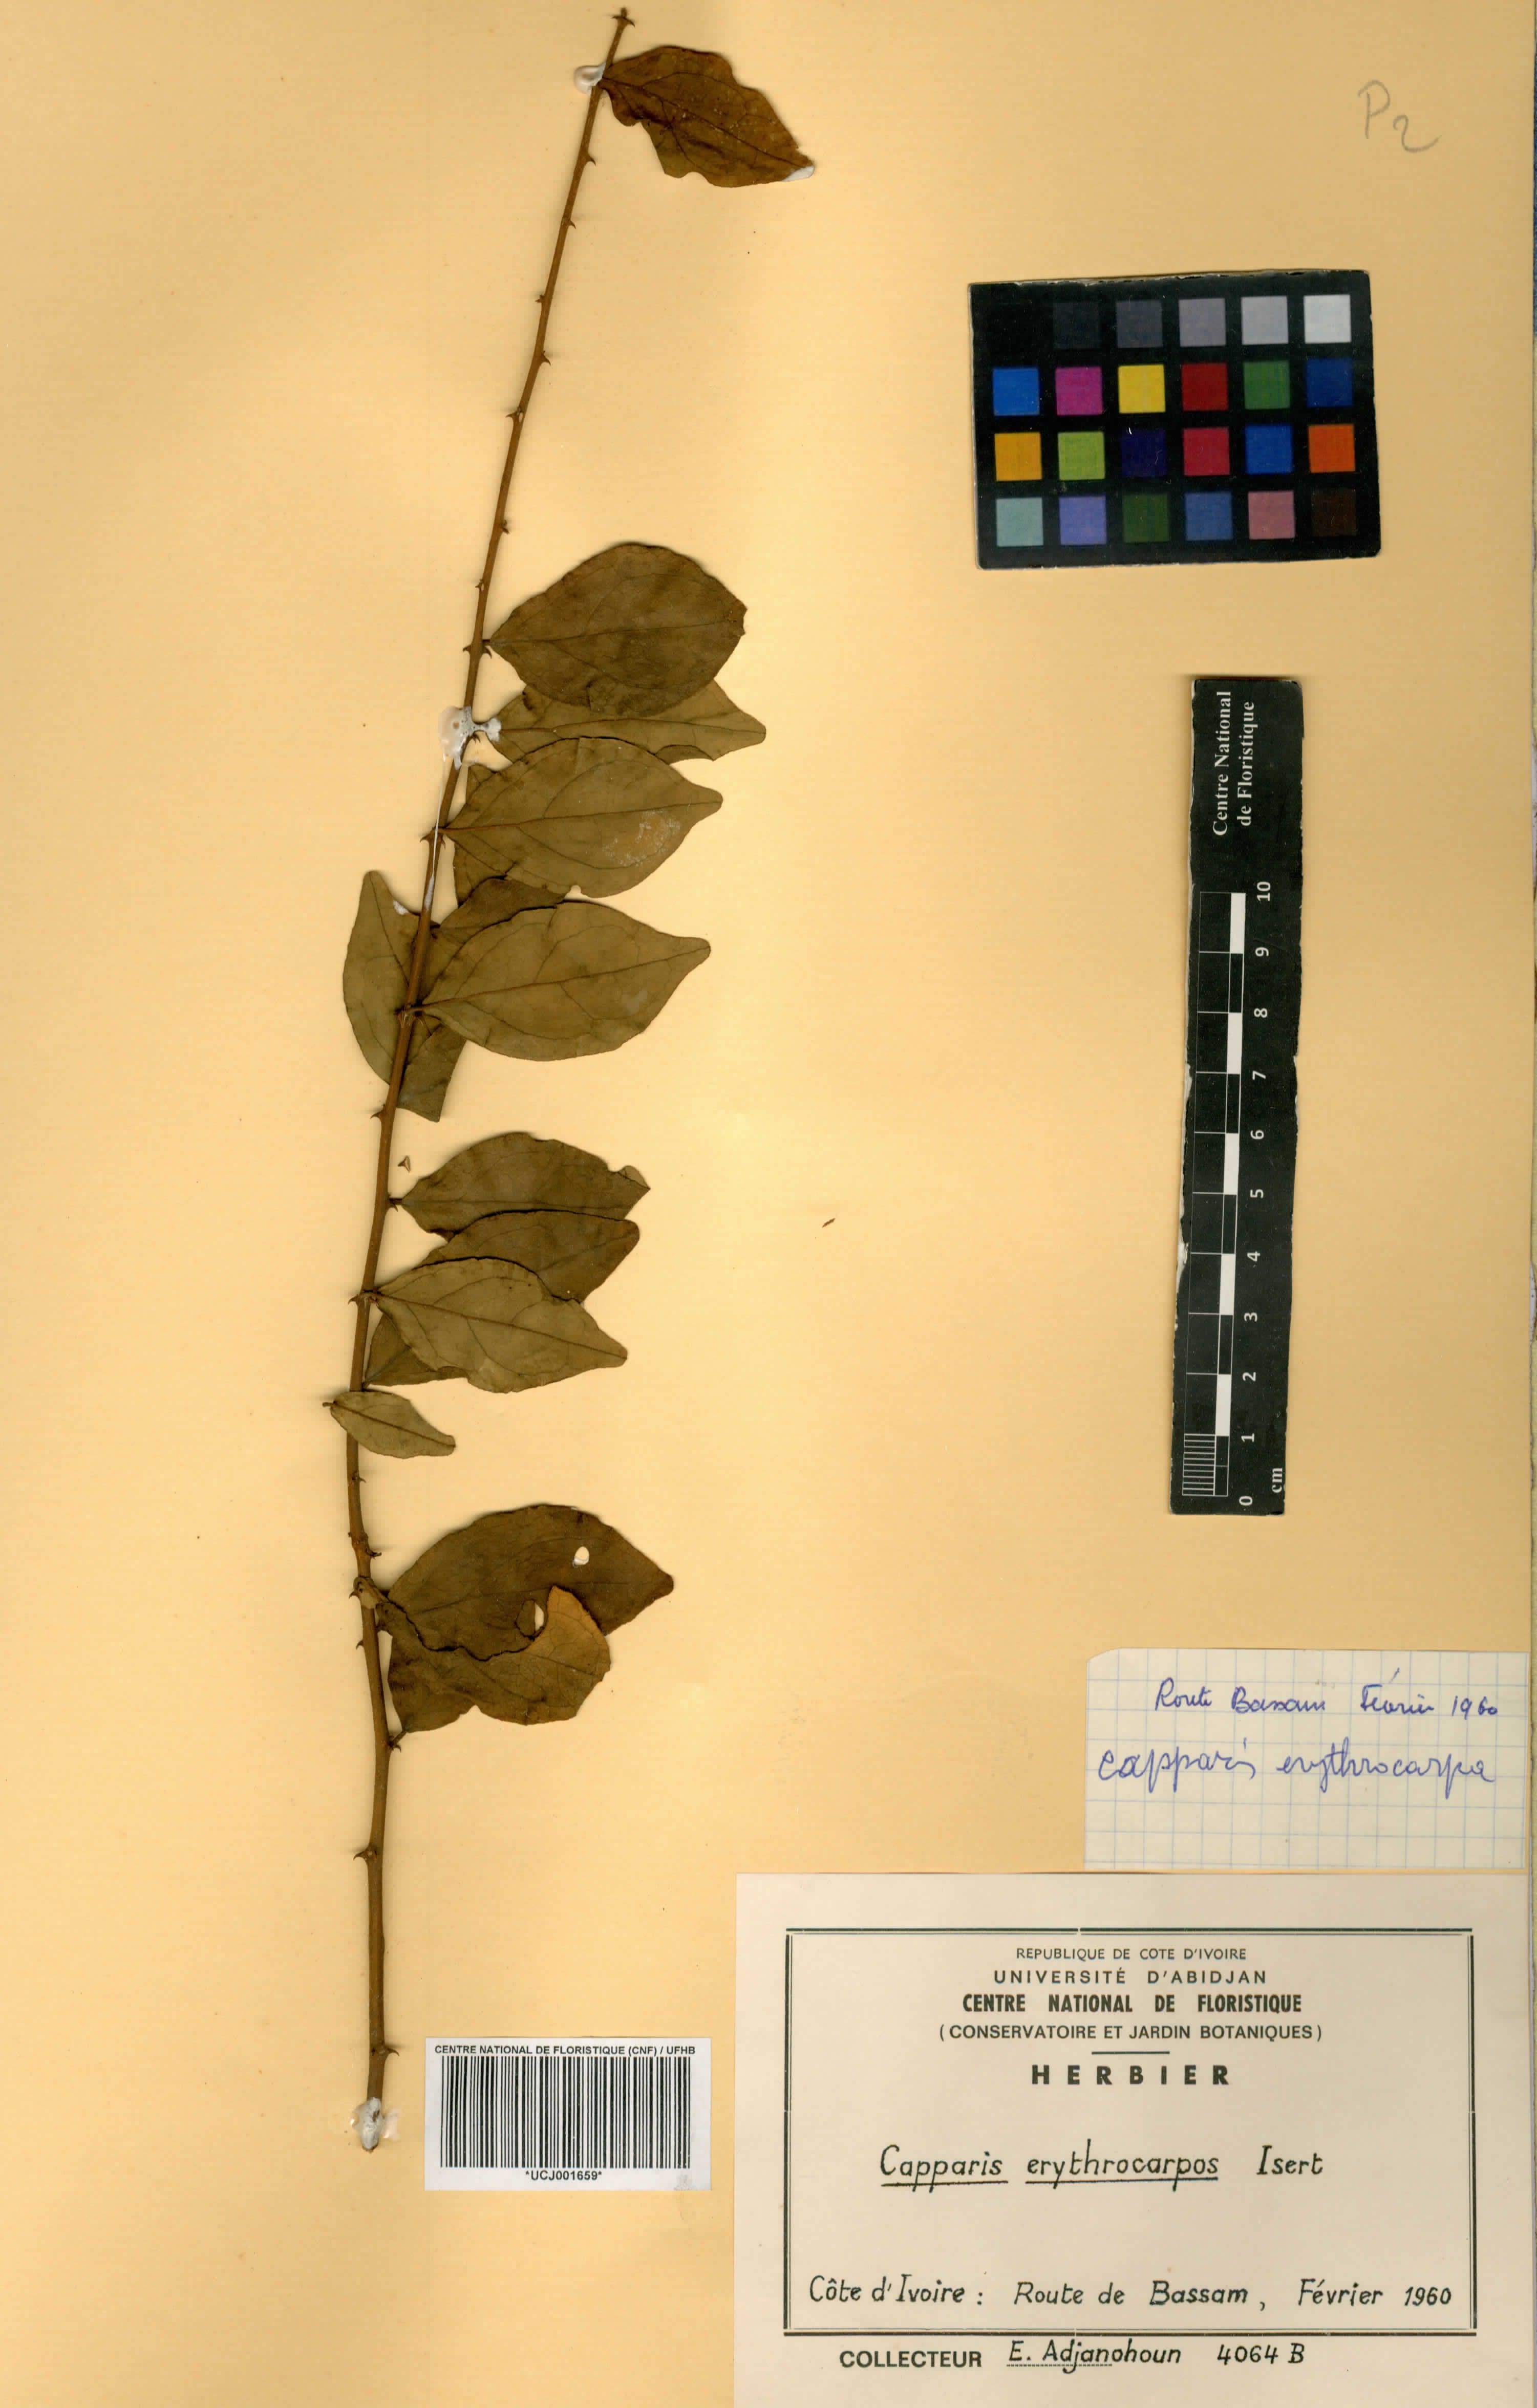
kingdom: Plantae
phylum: Tracheophyta
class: Magnoliopsida
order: Brassicales
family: Capparaceae
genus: Capparis
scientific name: Capparis erythrocarpos
